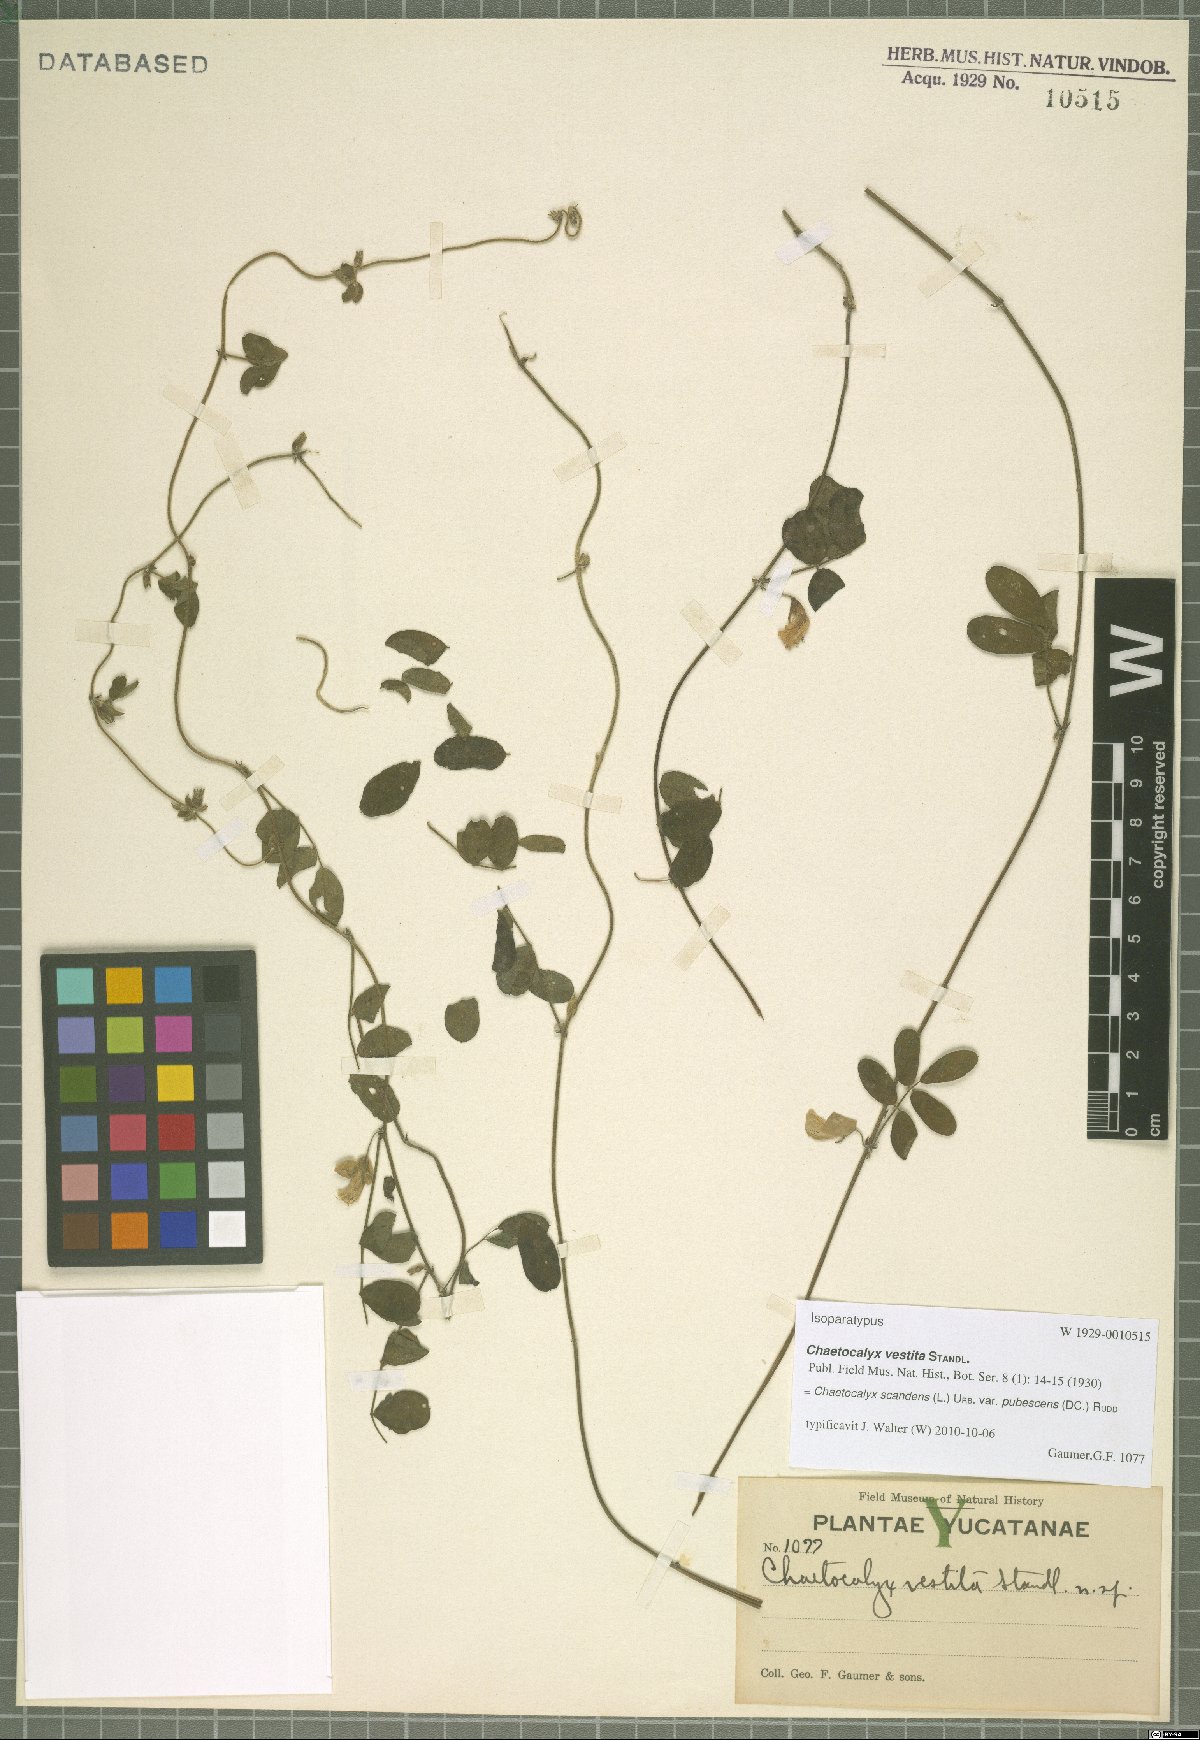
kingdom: Plantae
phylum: Tracheophyta
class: Magnoliopsida
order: Fabales
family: Fabaceae
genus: Nissolia
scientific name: Nissolia vincentina
